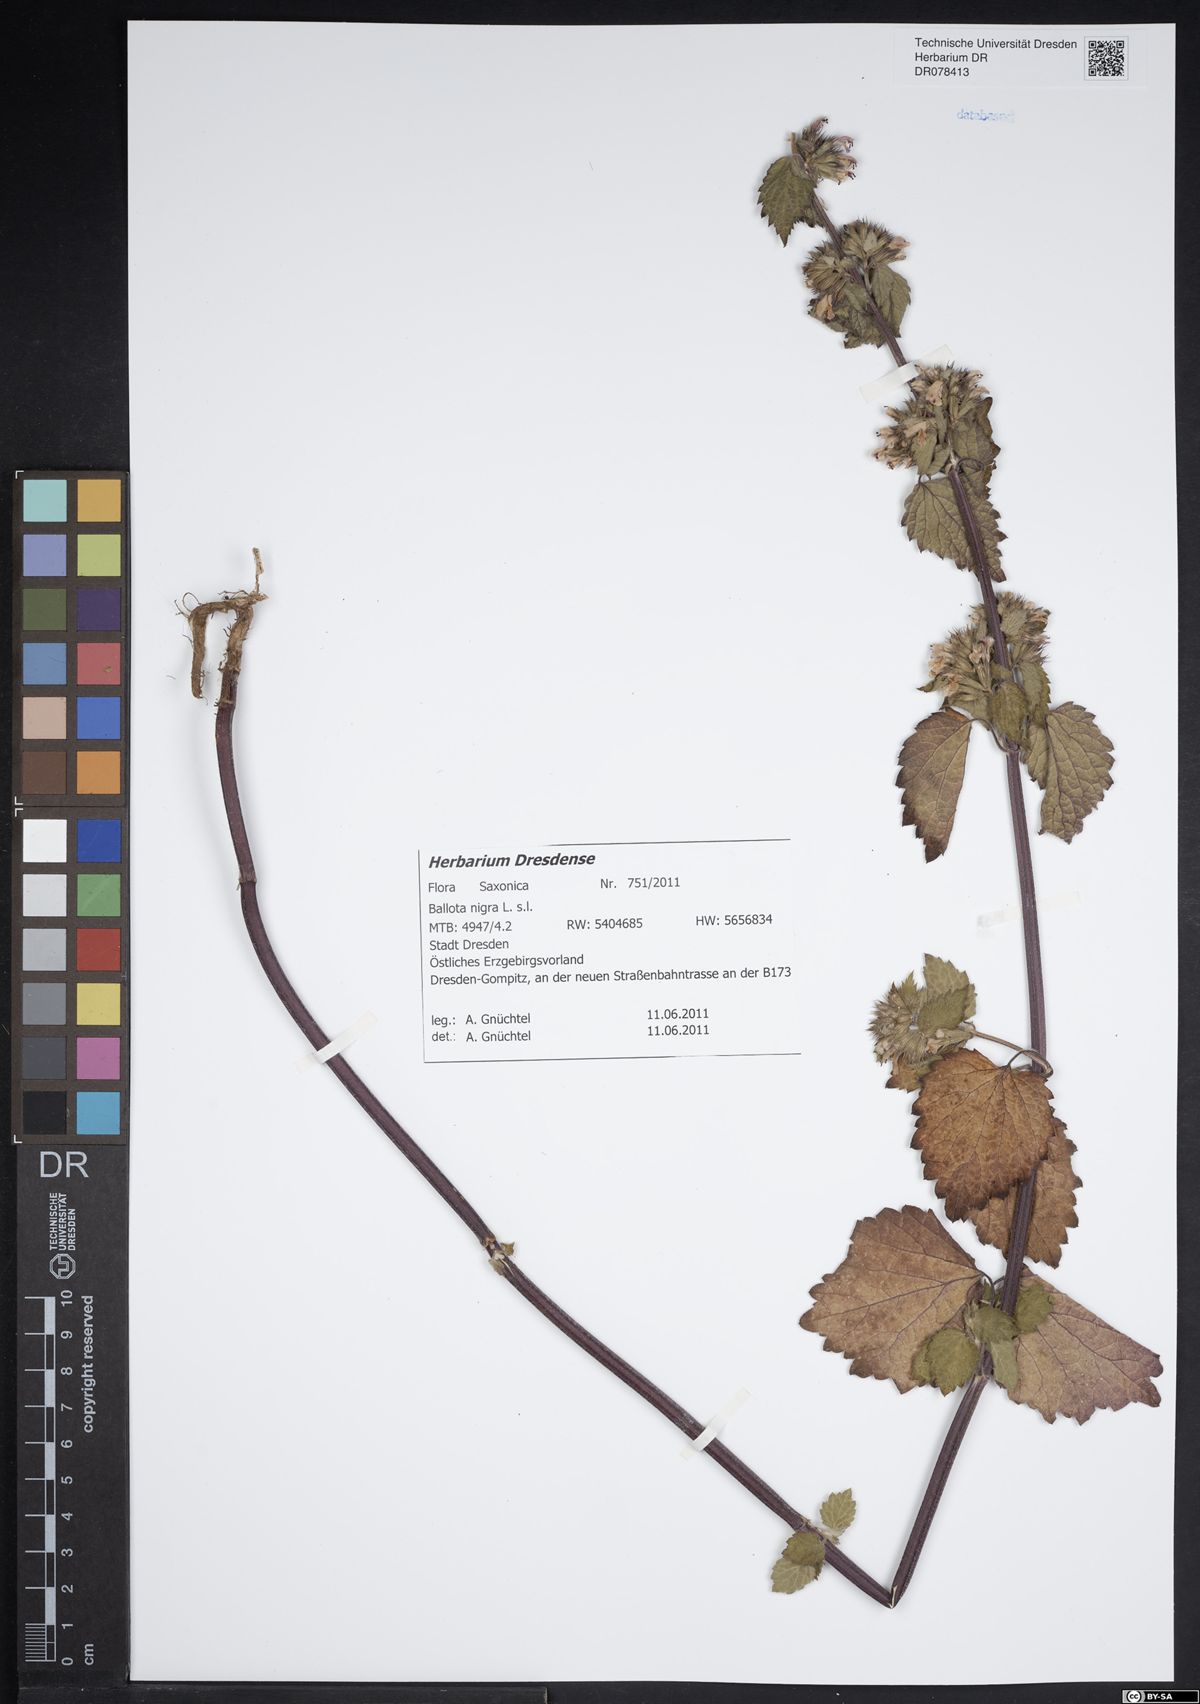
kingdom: Plantae
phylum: Tracheophyta
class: Magnoliopsida
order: Lamiales
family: Lamiaceae
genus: Ballota
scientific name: Ballota nigra
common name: Black horehound
